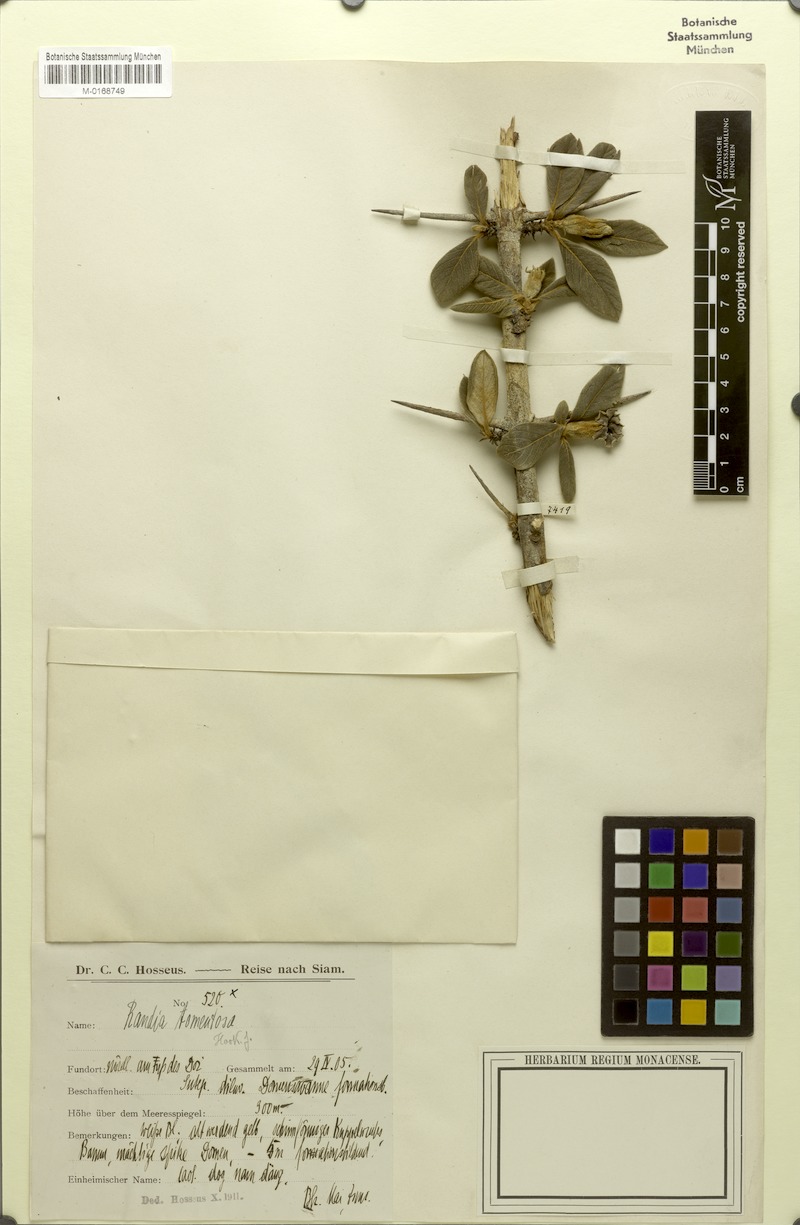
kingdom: Plantae
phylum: Tracheophyta
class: Magnoliopsida
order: Gentianales
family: Rubiaceae
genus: Catunaregam
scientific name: Catunaregam tomentosa
